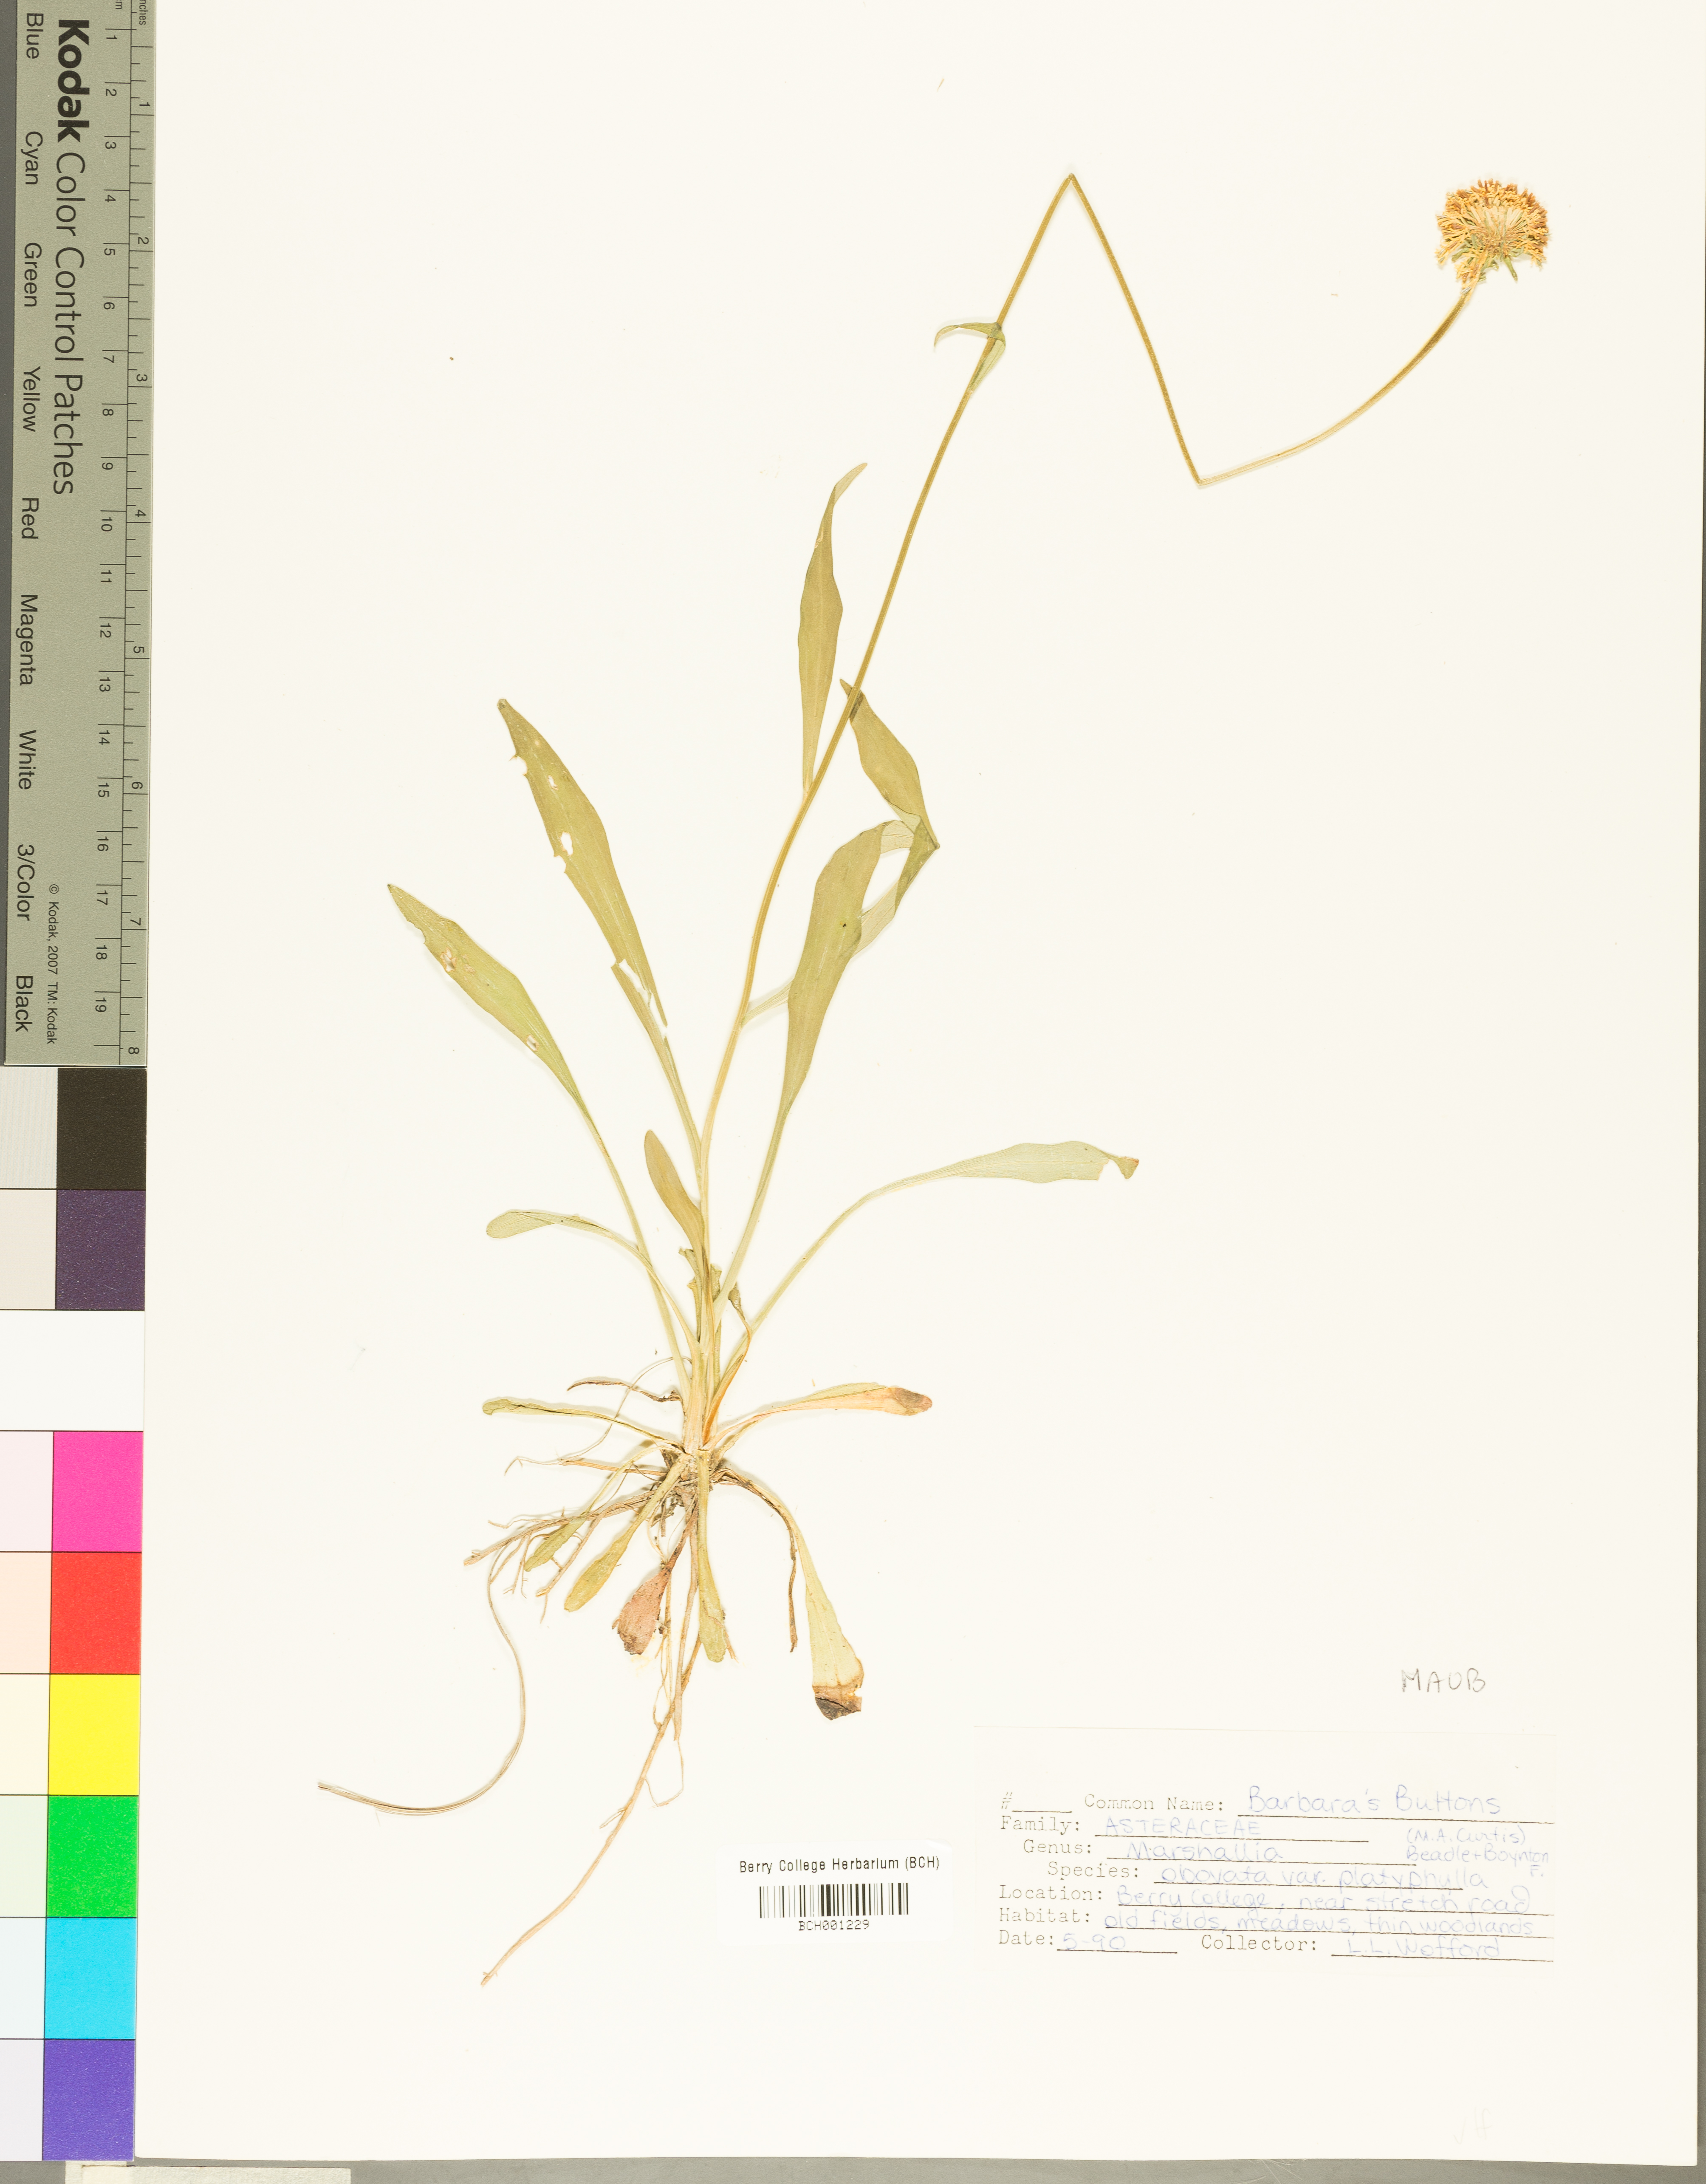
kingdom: Plantae
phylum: Tracheophyta
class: Magnoliopsida
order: Asterales
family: Asteraceae
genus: Marshallia
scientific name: Marshallia obovata
